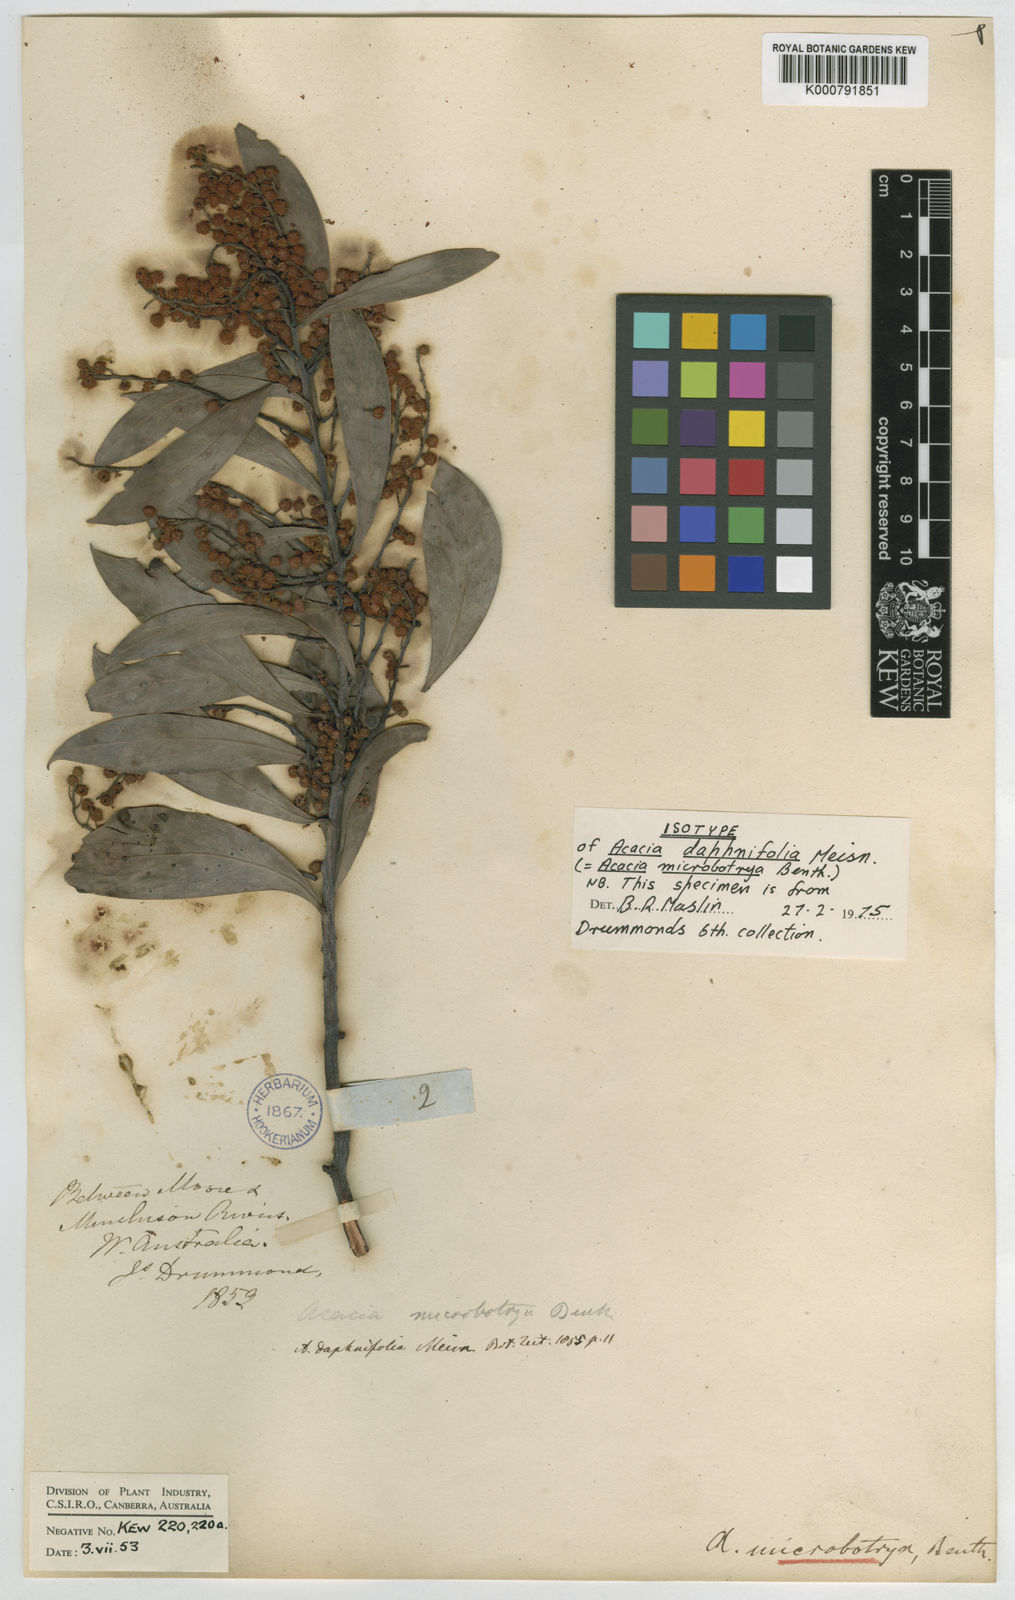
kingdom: Plantae
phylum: Tracheophyta
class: Magnoliopsida
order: Fabales
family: Fabaceae
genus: Acacia
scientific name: Acacia microbotrya
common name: Manna wattle
